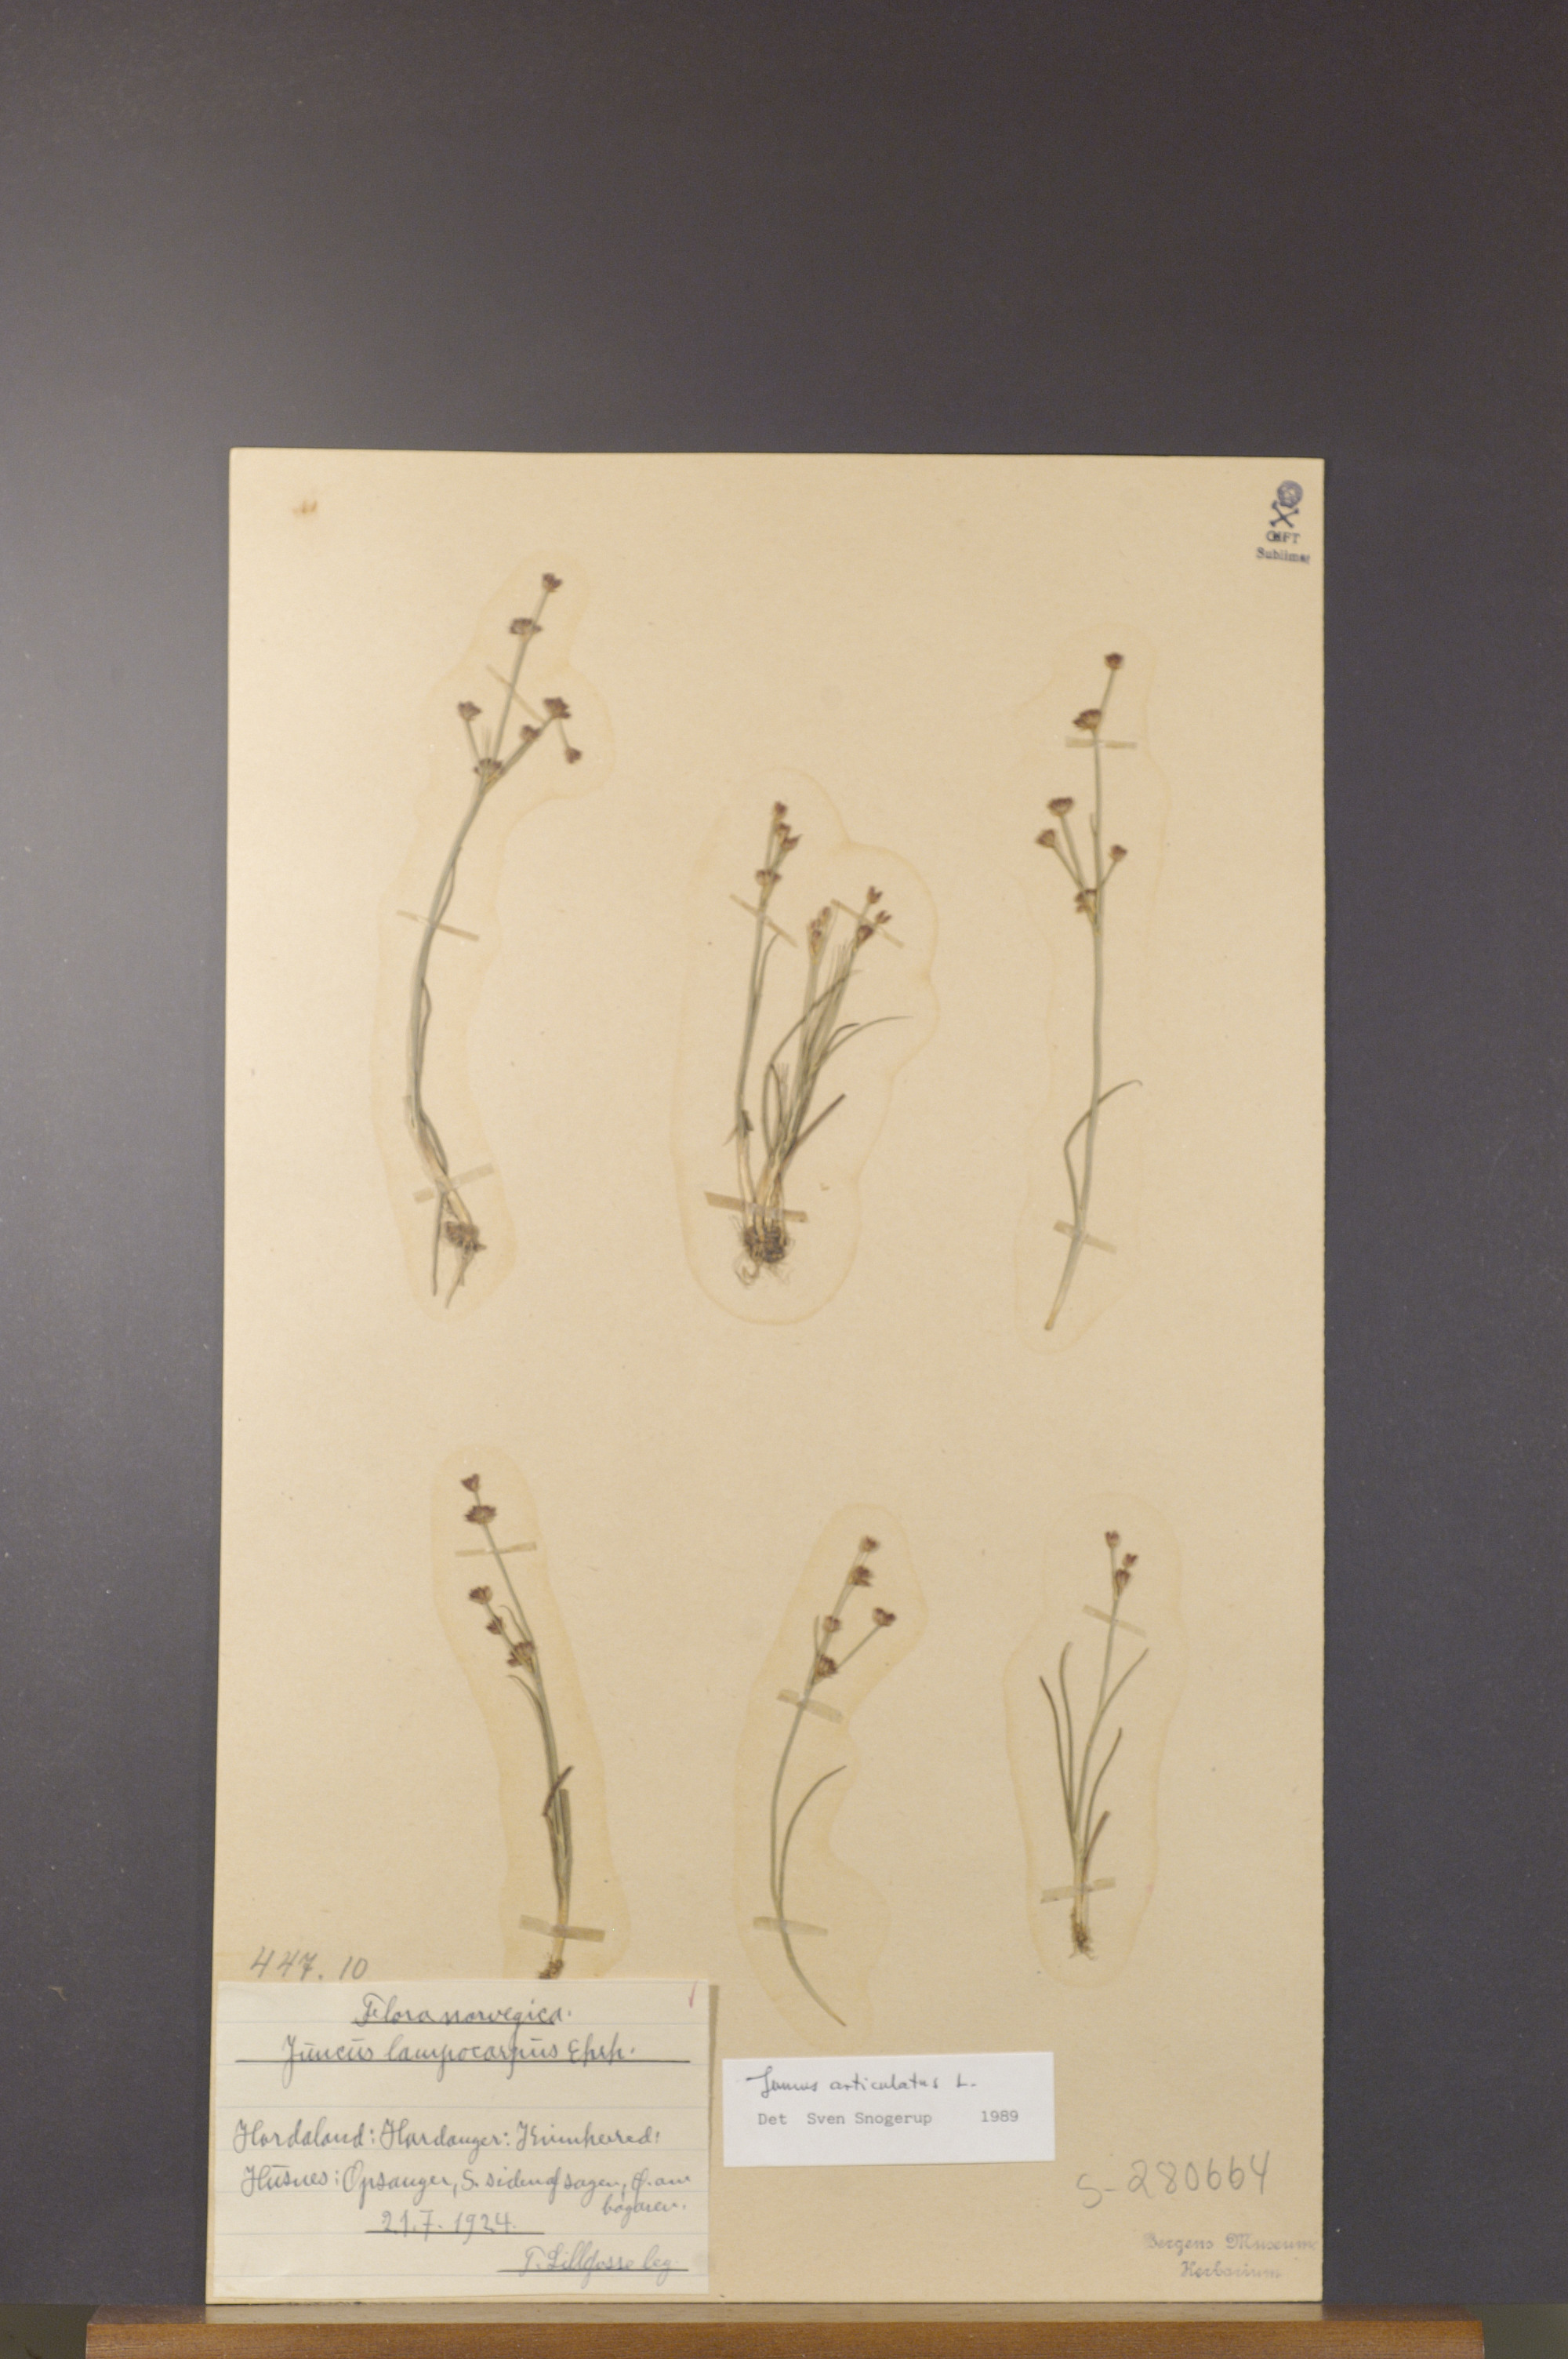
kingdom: Plantae
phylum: Tracheophyta
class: Liliopsida
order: Poales
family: Juncaceae
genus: Juncus
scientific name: Juncus articulatus
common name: Jointed rush
